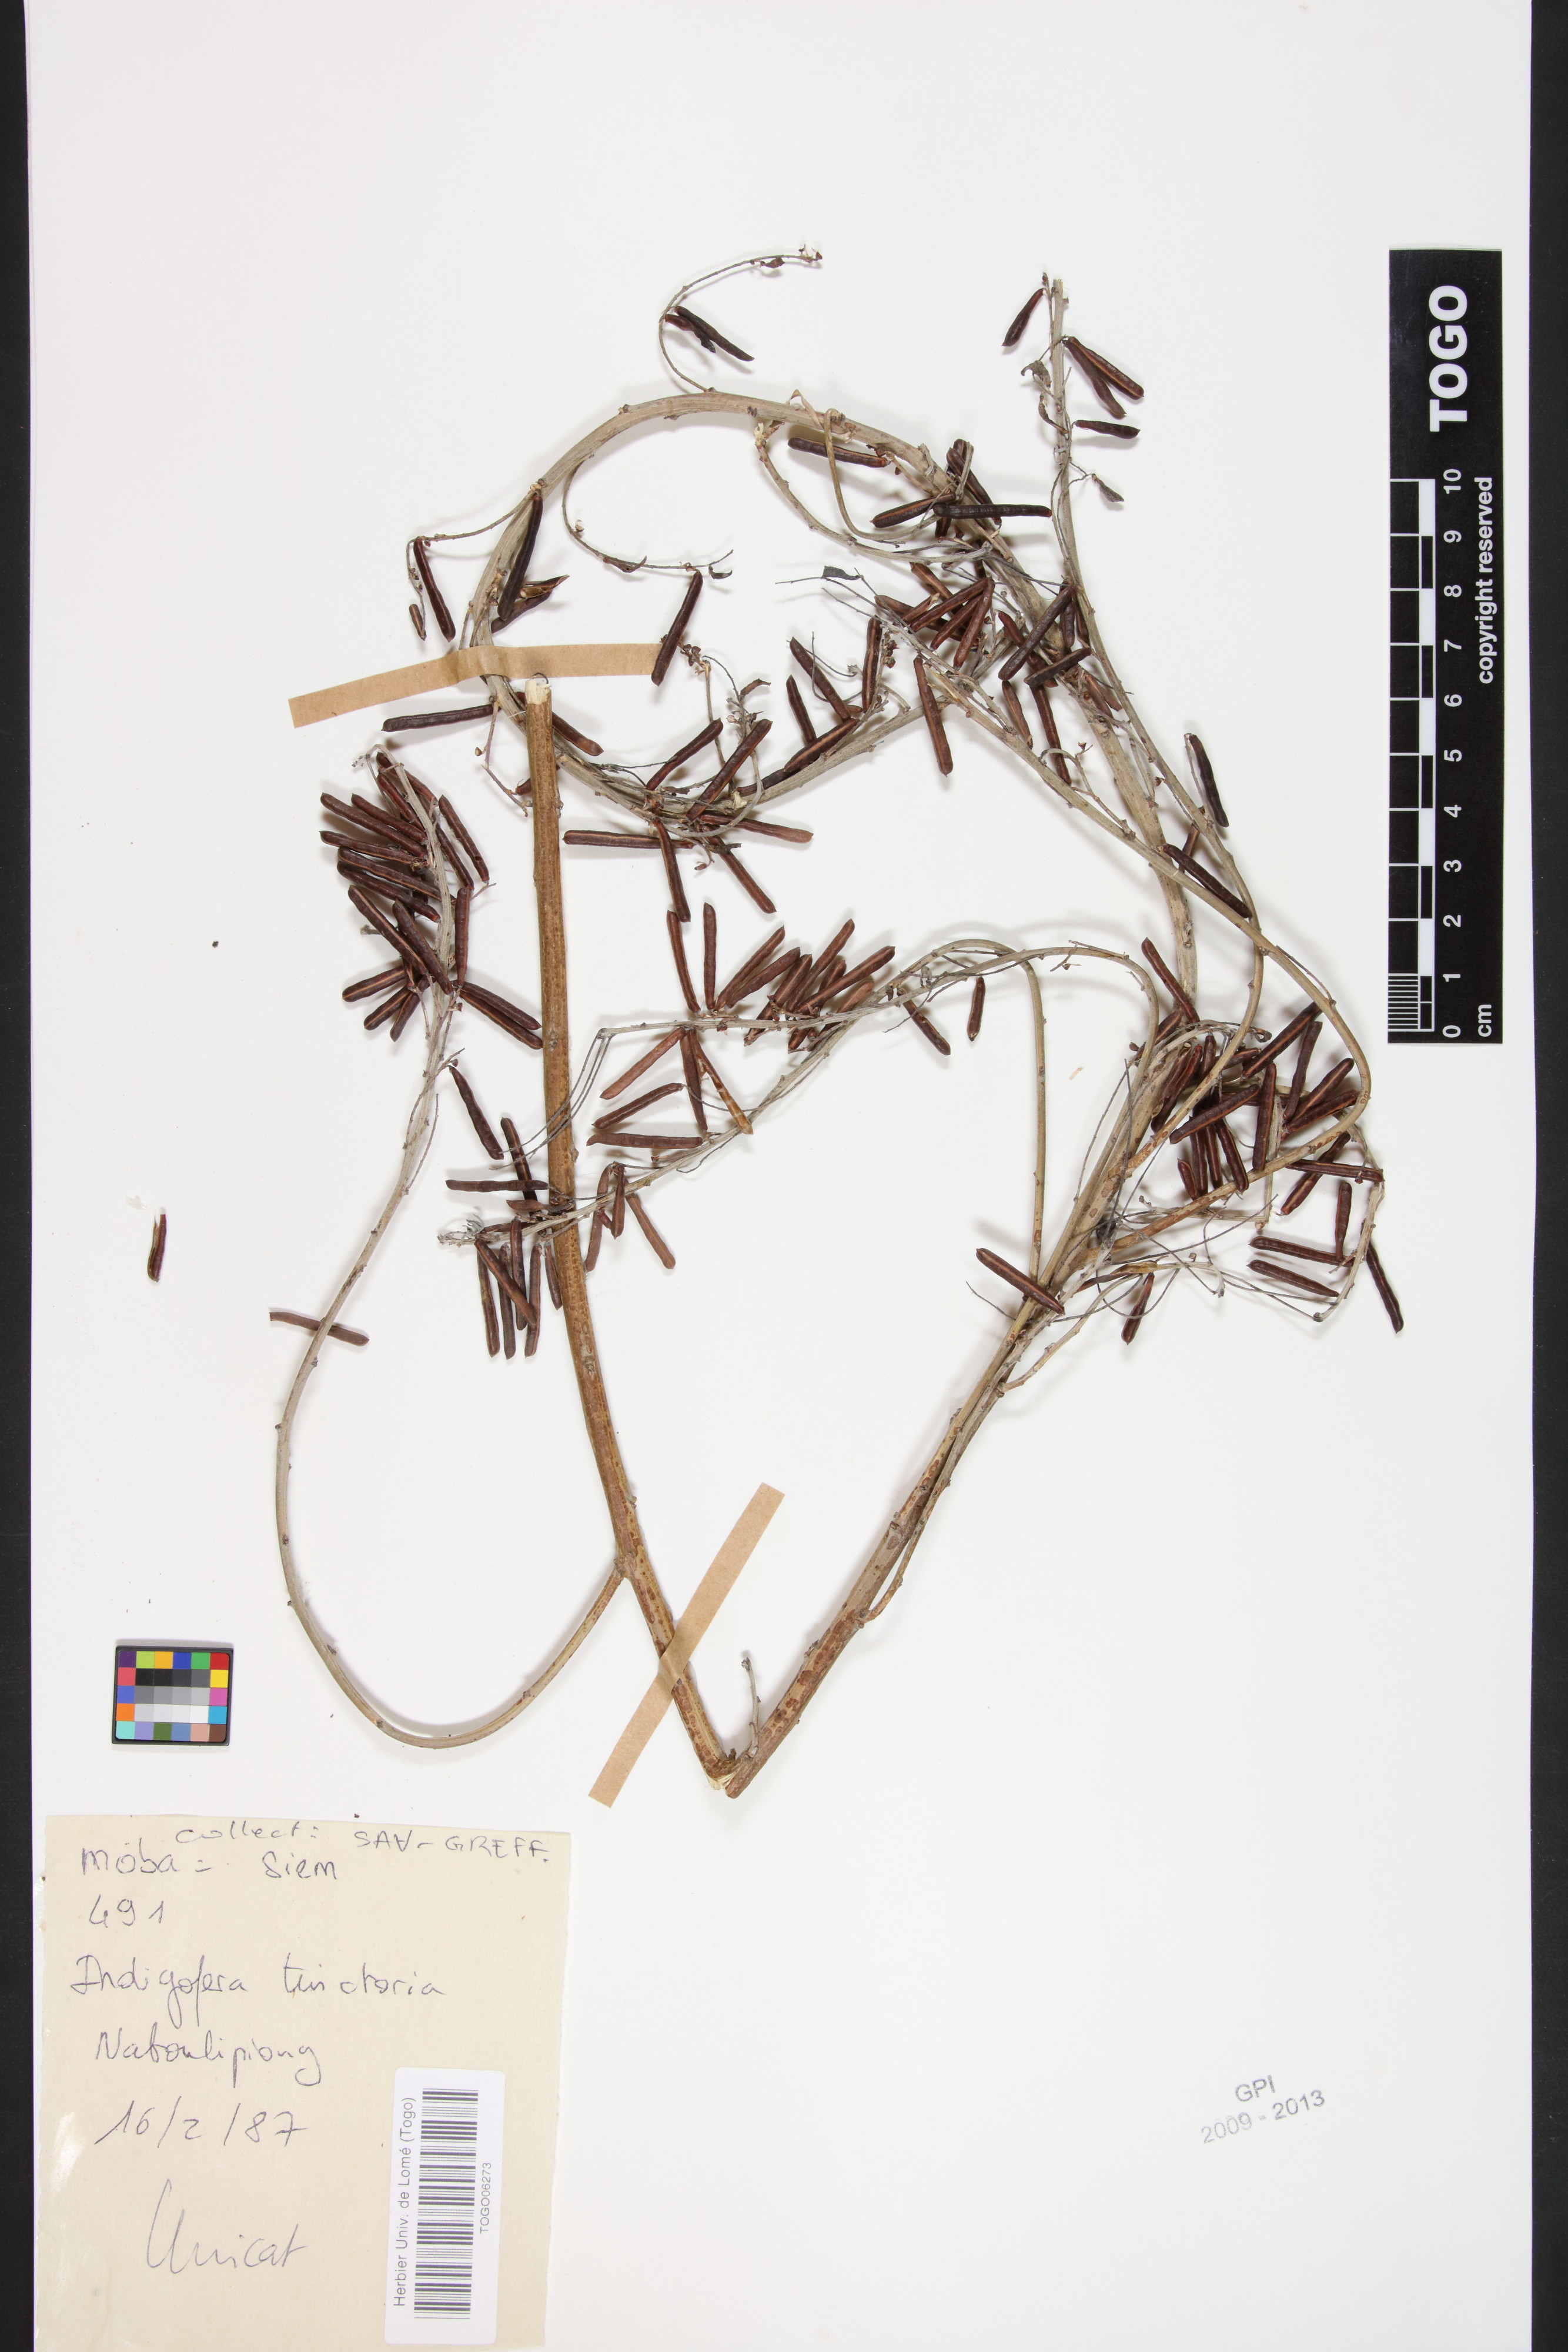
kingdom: Plantae
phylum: Tracheophyta
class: Magnoliopsida
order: Fabales
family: Fabaceae
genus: Indigofera
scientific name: Indigofera tinctoria
